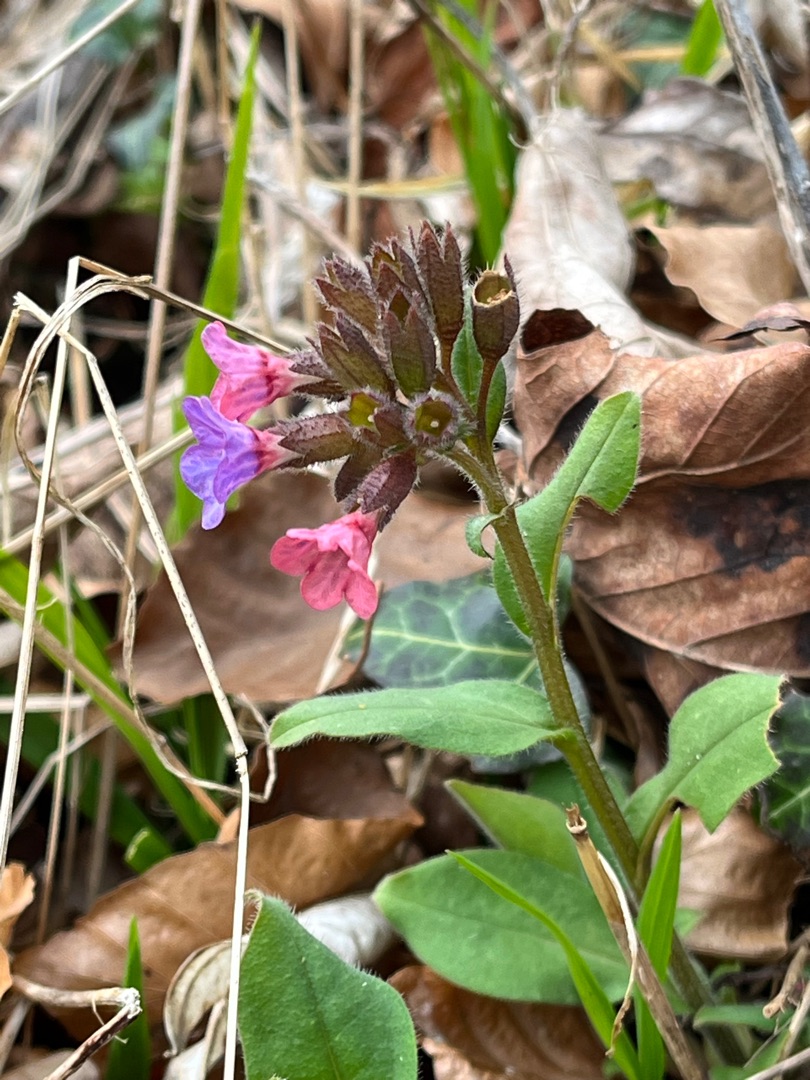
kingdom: Plantae
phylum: Tracheophyta
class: Magnoliopsida
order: Boraginales
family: Boraginaceae
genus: Pulmonaria
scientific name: Pulmonaria obscura
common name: Almindelig lungeurt
